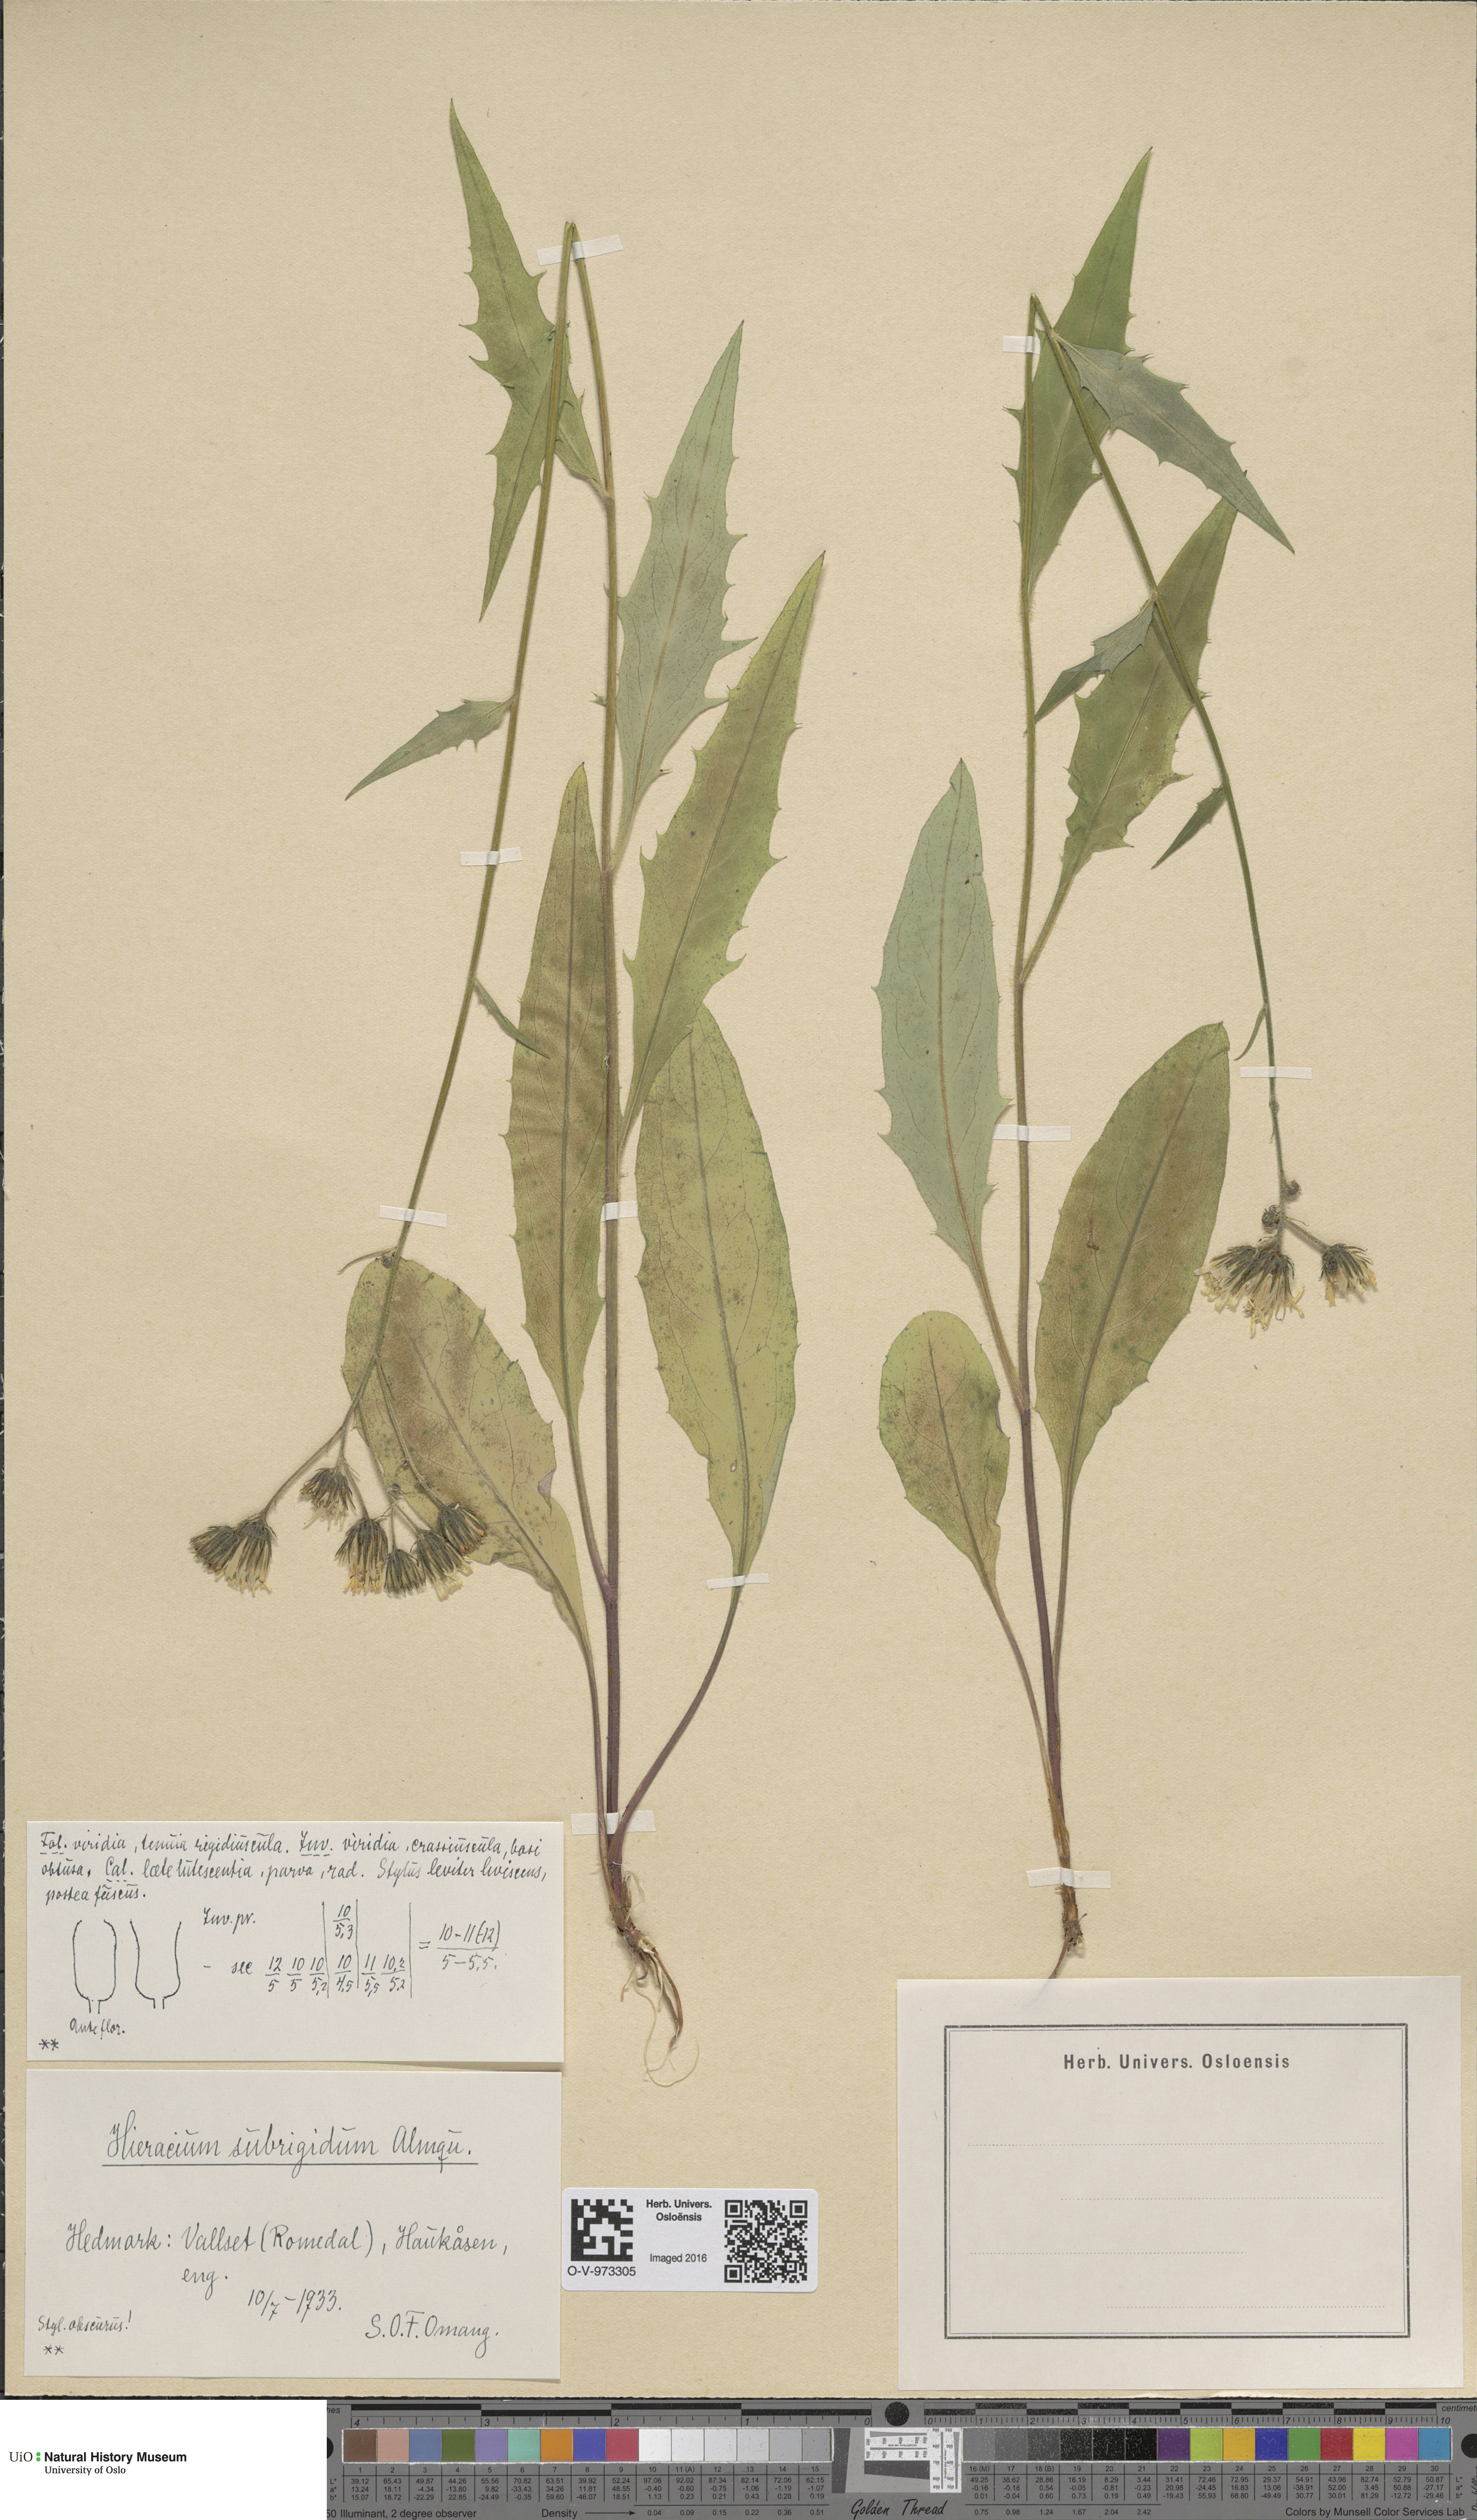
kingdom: Plantae
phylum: Tracheophyta
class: Magnoliopsida
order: Asterales
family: Asteraceae
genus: Hieracium
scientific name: Hieracium subrigidum
